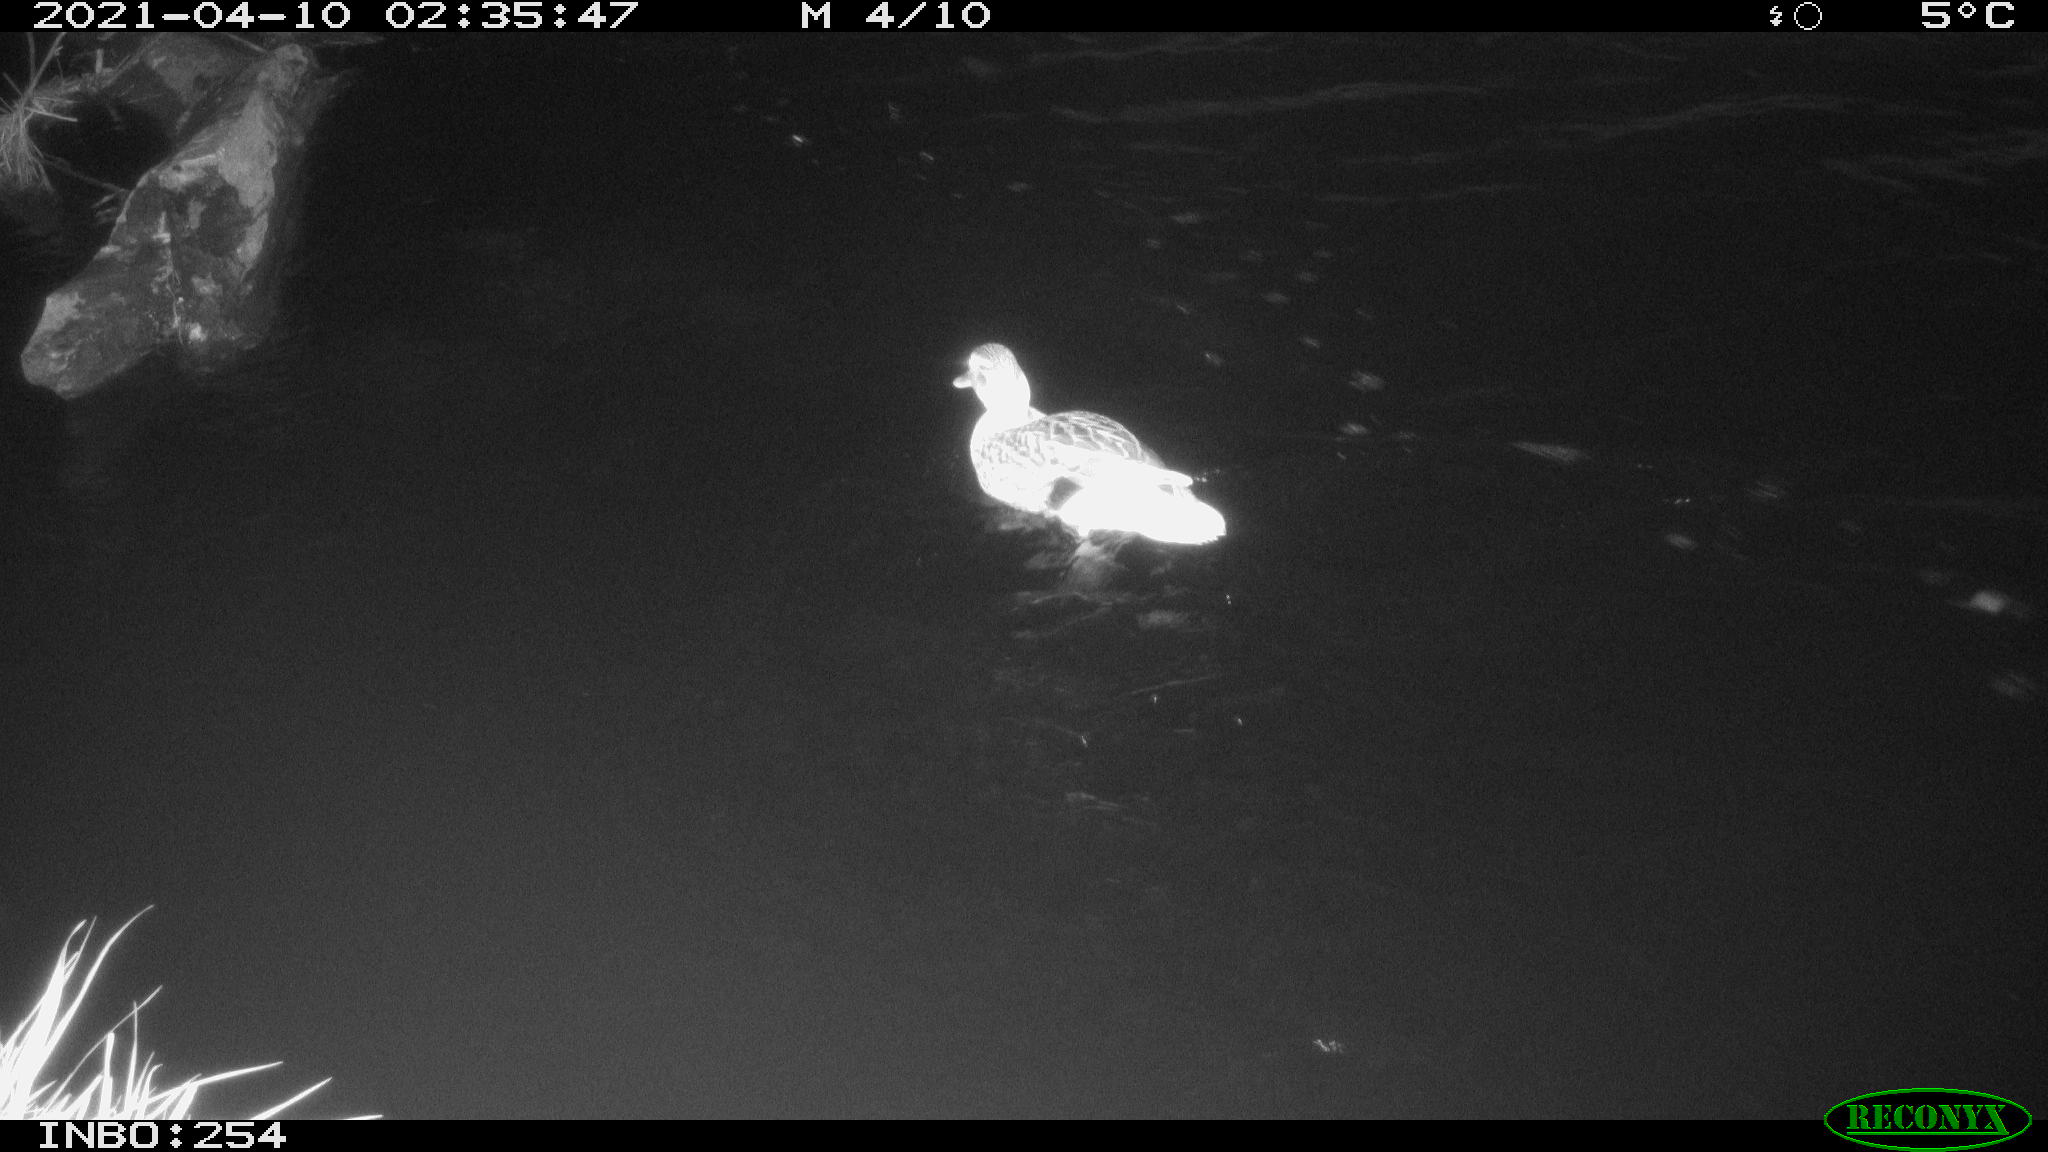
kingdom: Animalia
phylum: Chordata
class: Aves
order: Anseriformes
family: Anatidae
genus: Anas
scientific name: Anas
